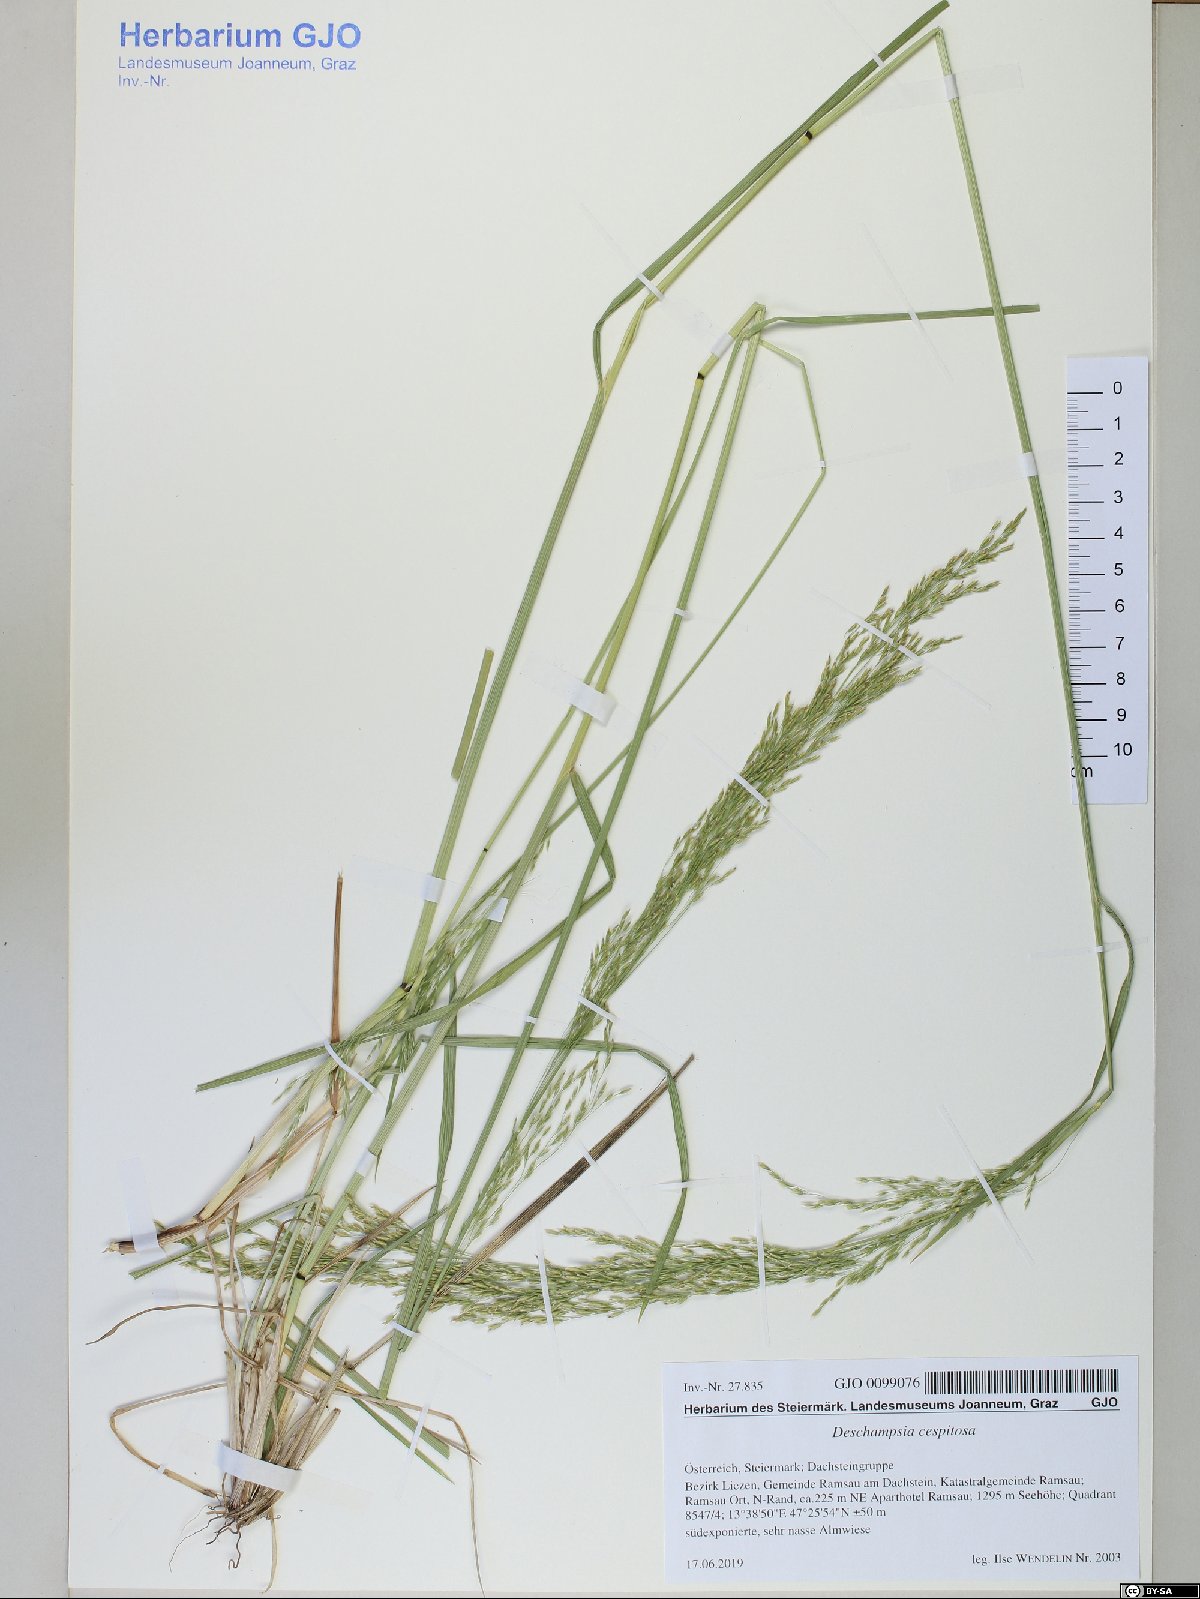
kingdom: Plantae
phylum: Tracheophyta
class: Liliopsida
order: Poales
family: Poaceae
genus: Deschampsia
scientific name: Deschampsia cespitosa
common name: Tufted hair-grass
